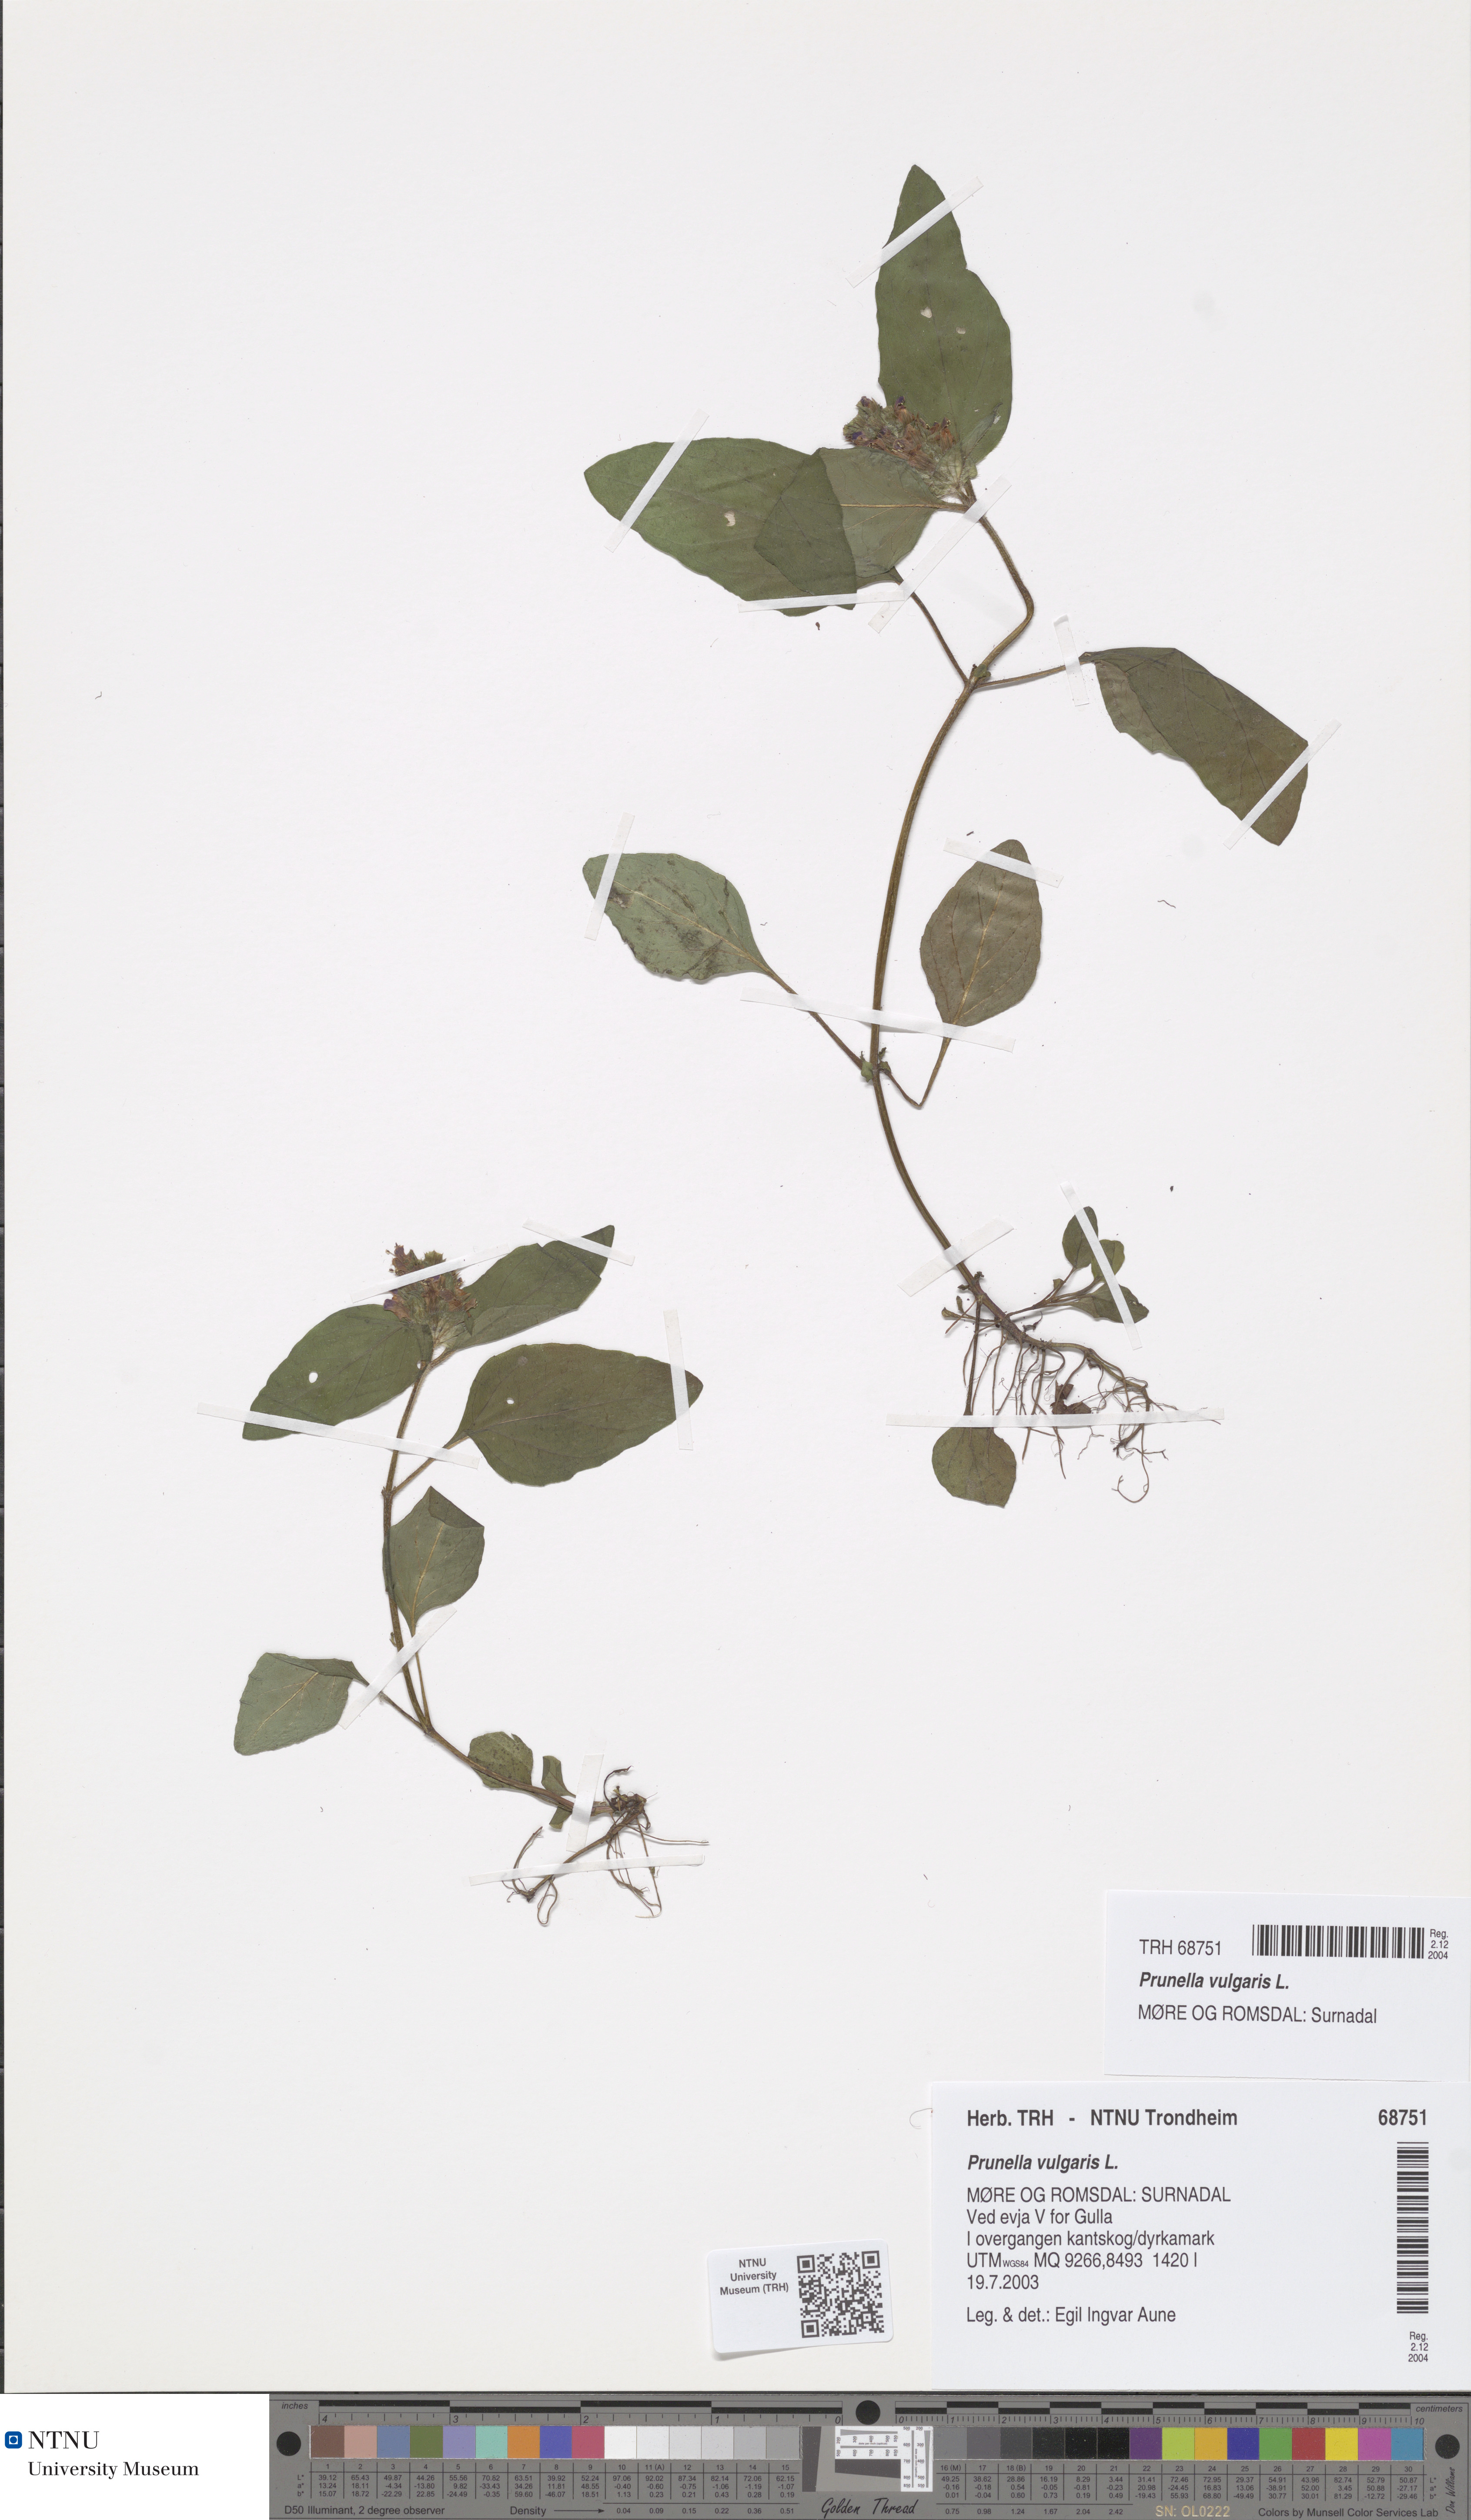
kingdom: Plantae
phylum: Tracheophyta
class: Magnoliopsida
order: Lamiales
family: Lamiaceae
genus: Prunella
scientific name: Prunella vulgaris
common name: Heal-all
